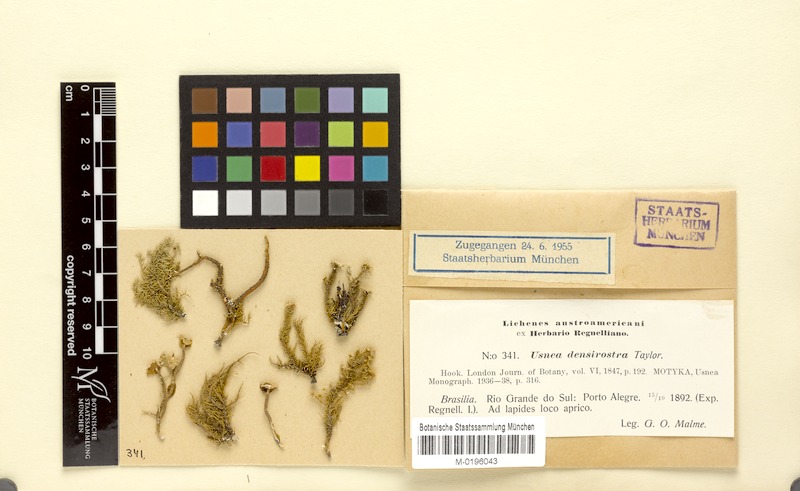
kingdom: Fungi
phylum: Ascomycota
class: Lecanoromycetes
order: Lecanorales
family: Parmeliaceae
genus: Usnea
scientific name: Usnea densirostra
